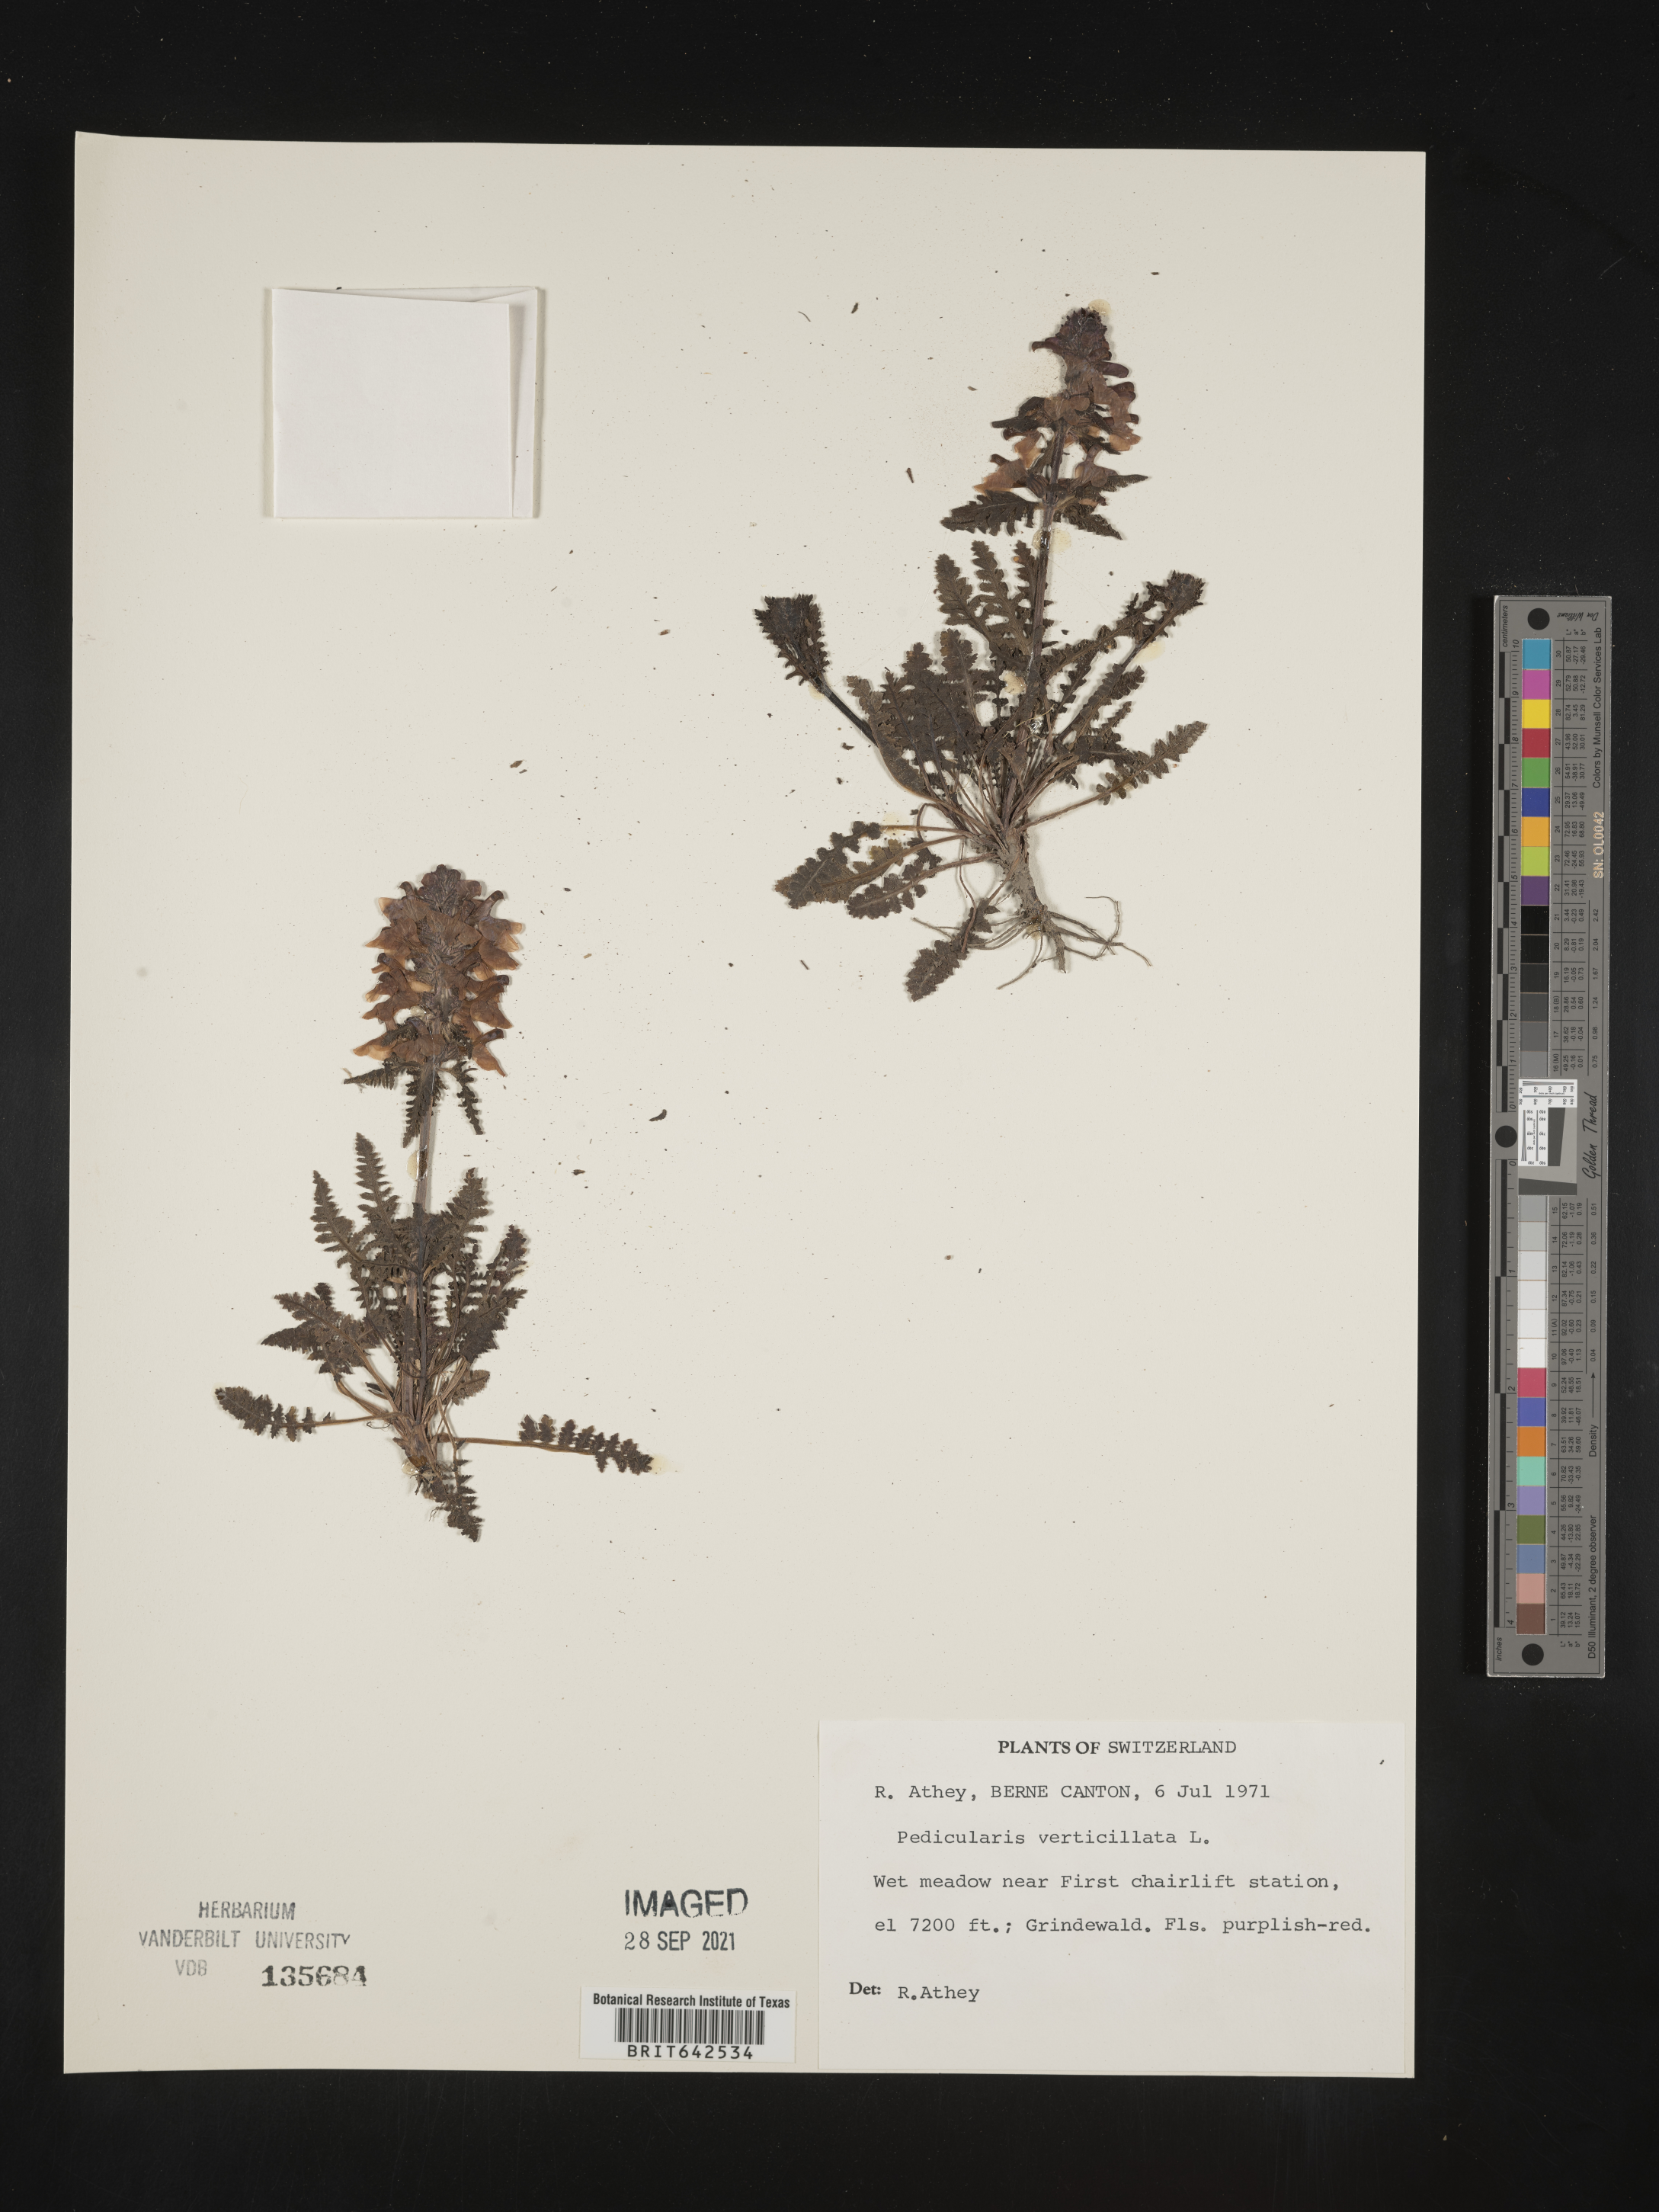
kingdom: Plantae
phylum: Tracheophyta
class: Magnoliopsida
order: Lamiales
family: Orobanchaceae
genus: Pedicularis
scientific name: Pedicularis
